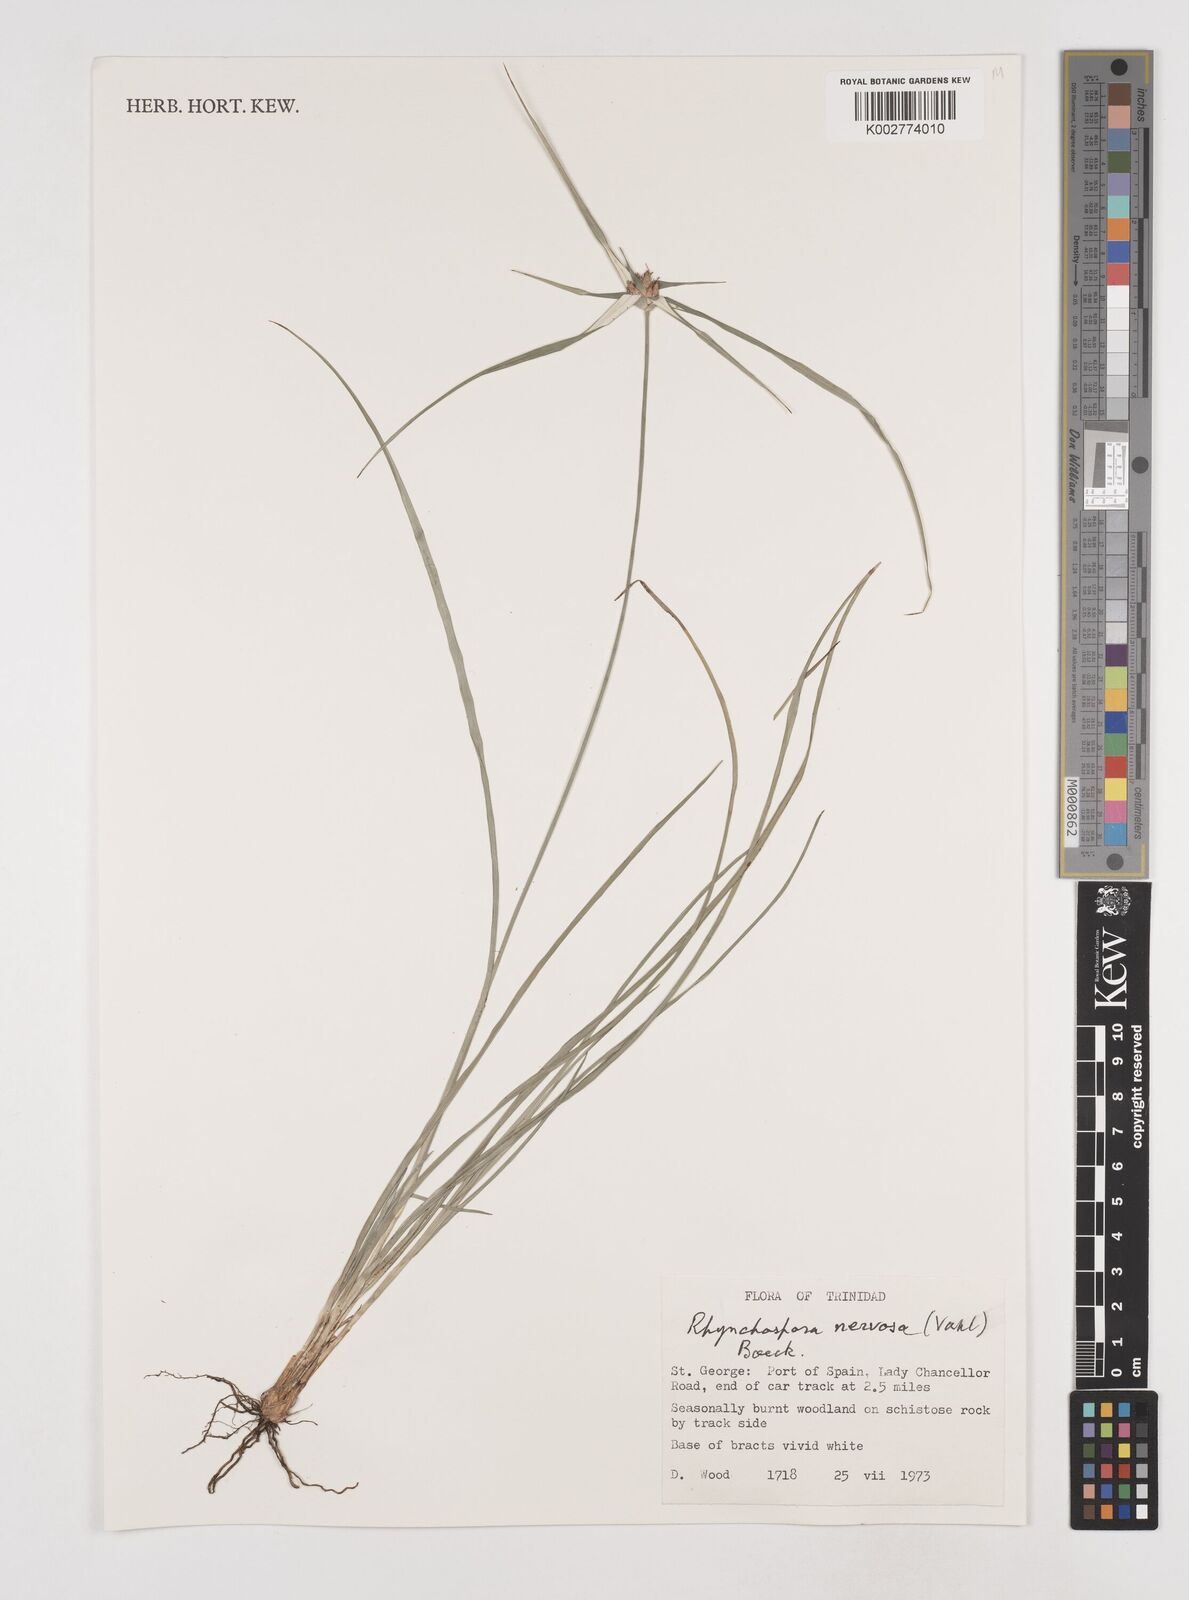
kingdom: Plantae
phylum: Tracheophyta
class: Liliopsida
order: Poales
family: Cyperaceae
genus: Rhynchospora
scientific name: Rhynchospora pura
